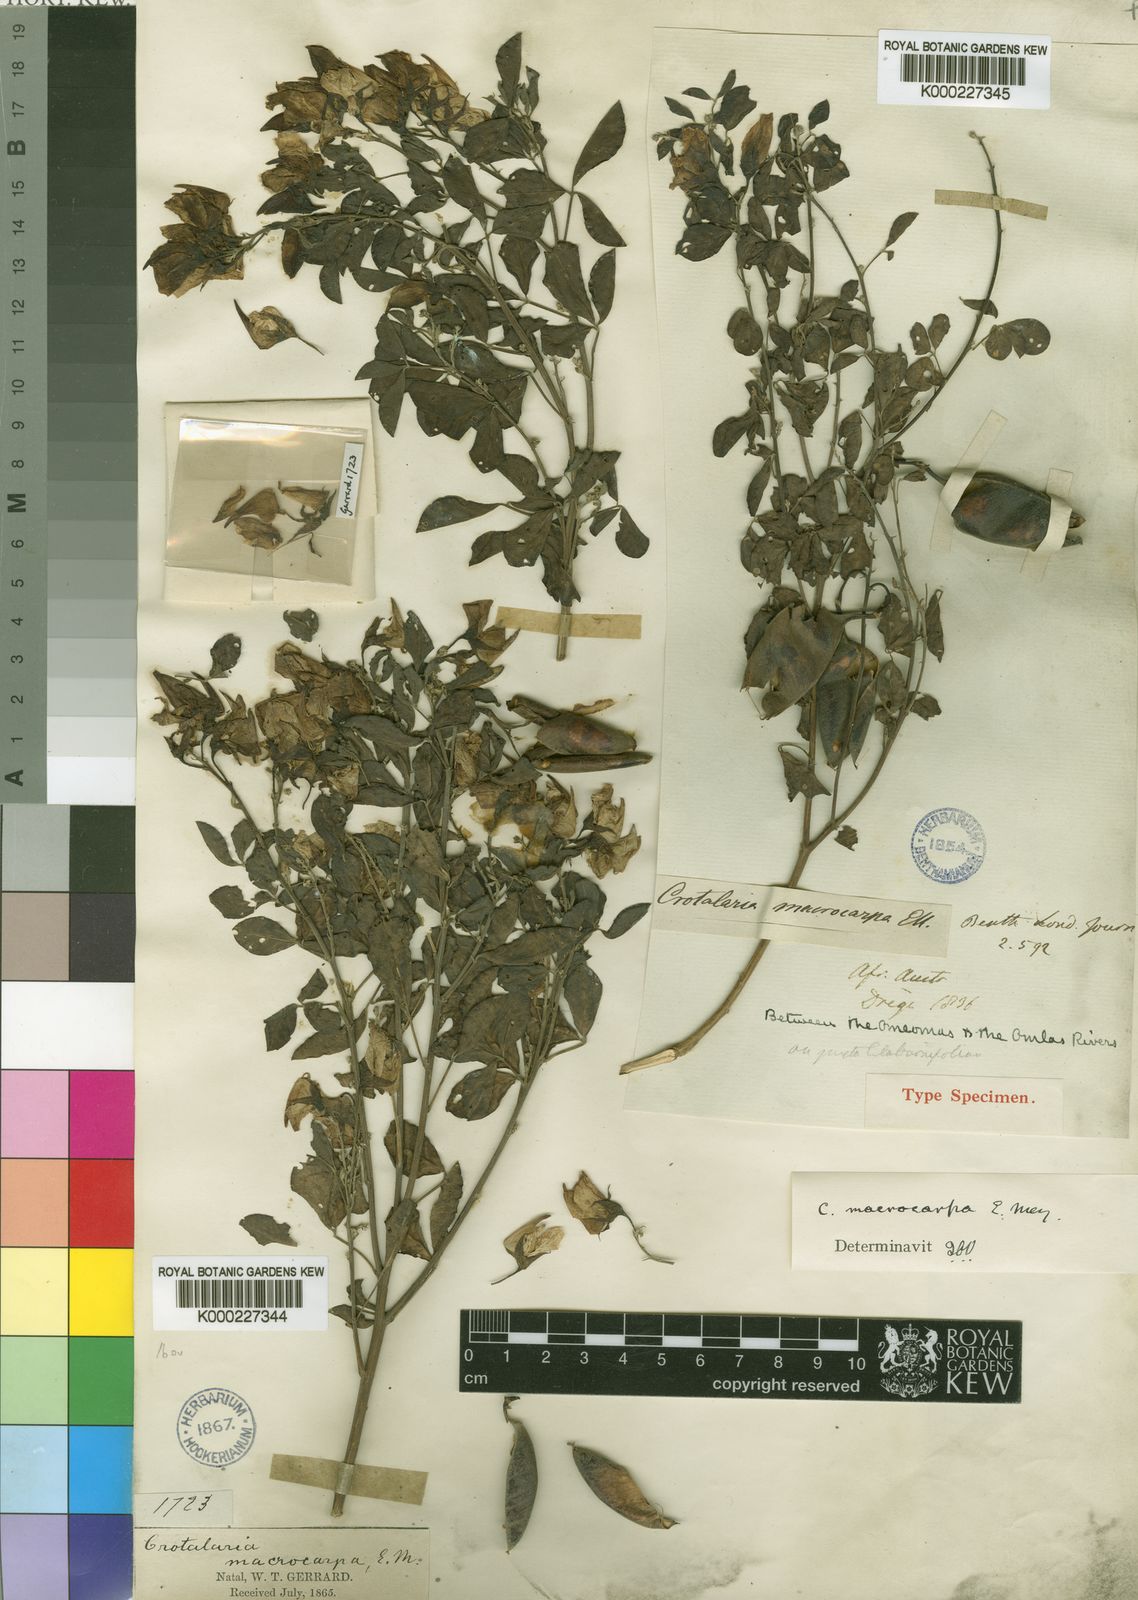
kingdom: Plantae
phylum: Tracheophyta
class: Magnoliopsida
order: Fabales
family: Fabaceae
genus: Crotalaria
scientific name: Crotalaria macrocarpa
